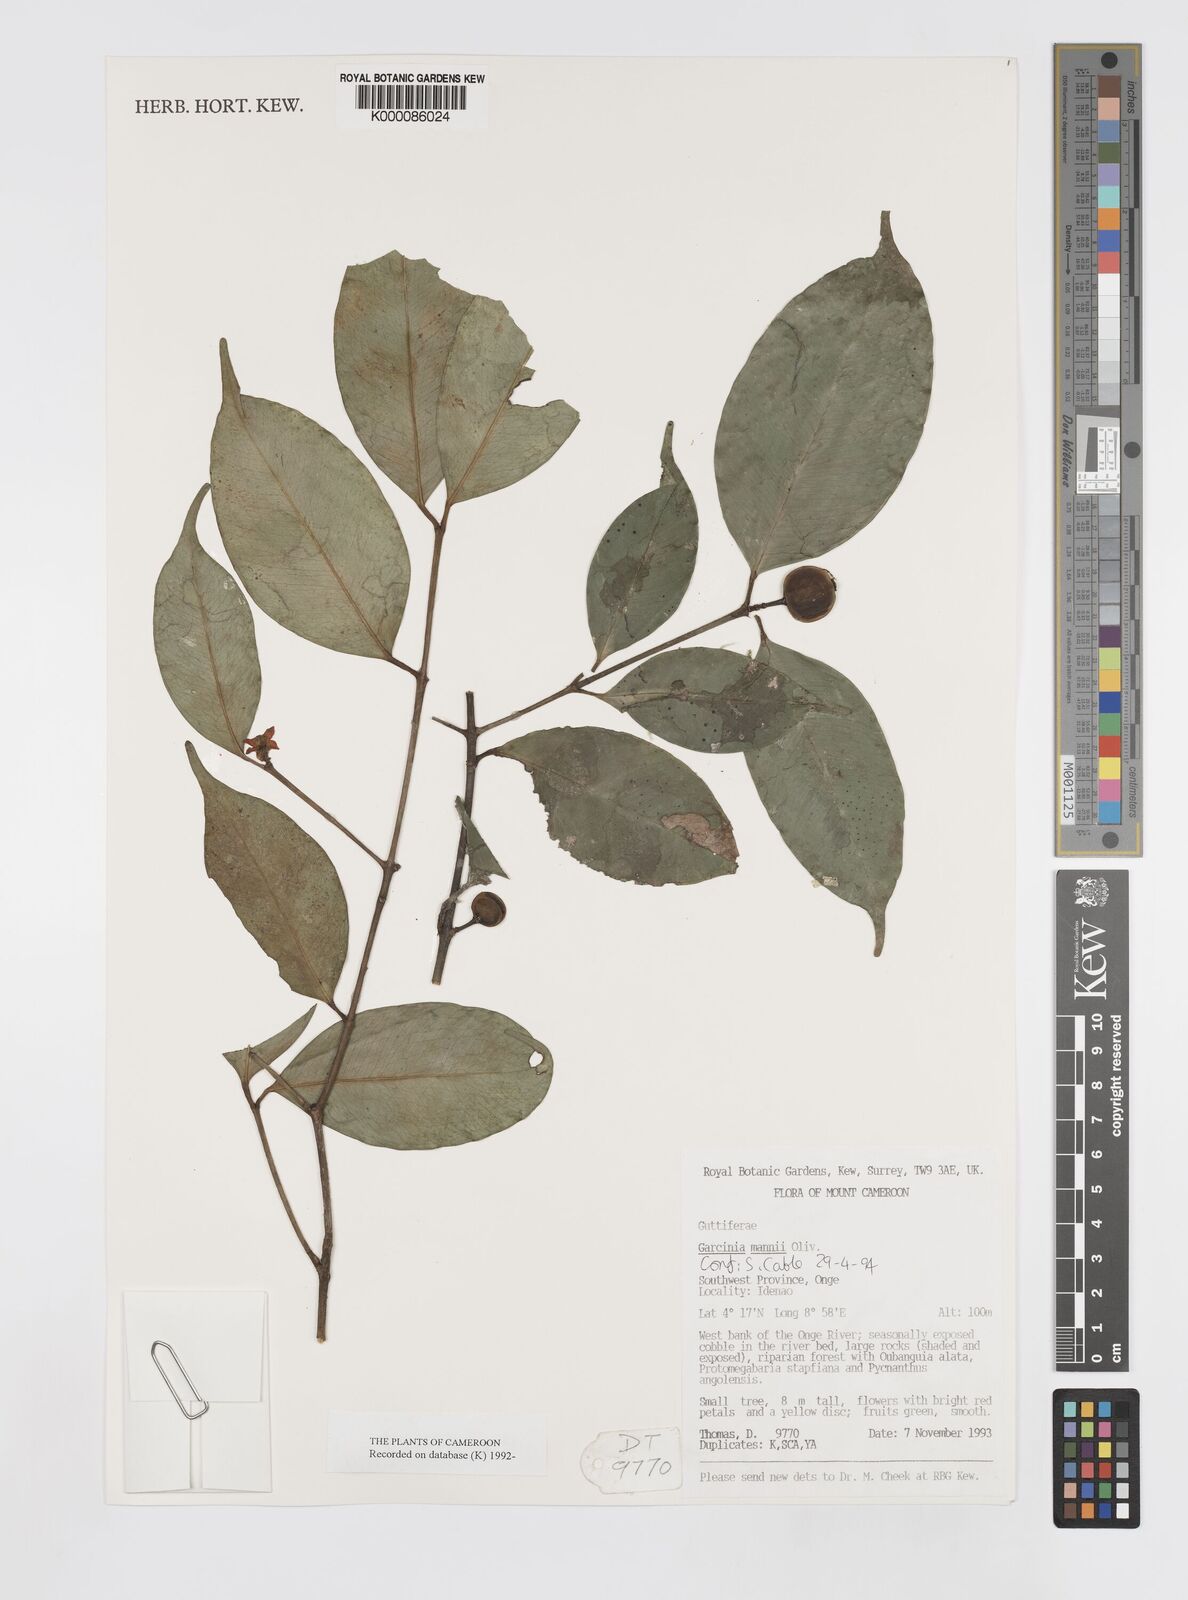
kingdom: Plantae
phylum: Tracheophyta
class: Magnoliopsida
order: Malpighiales
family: Clusiaceae
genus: Garcinia
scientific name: Garcinia mannii
